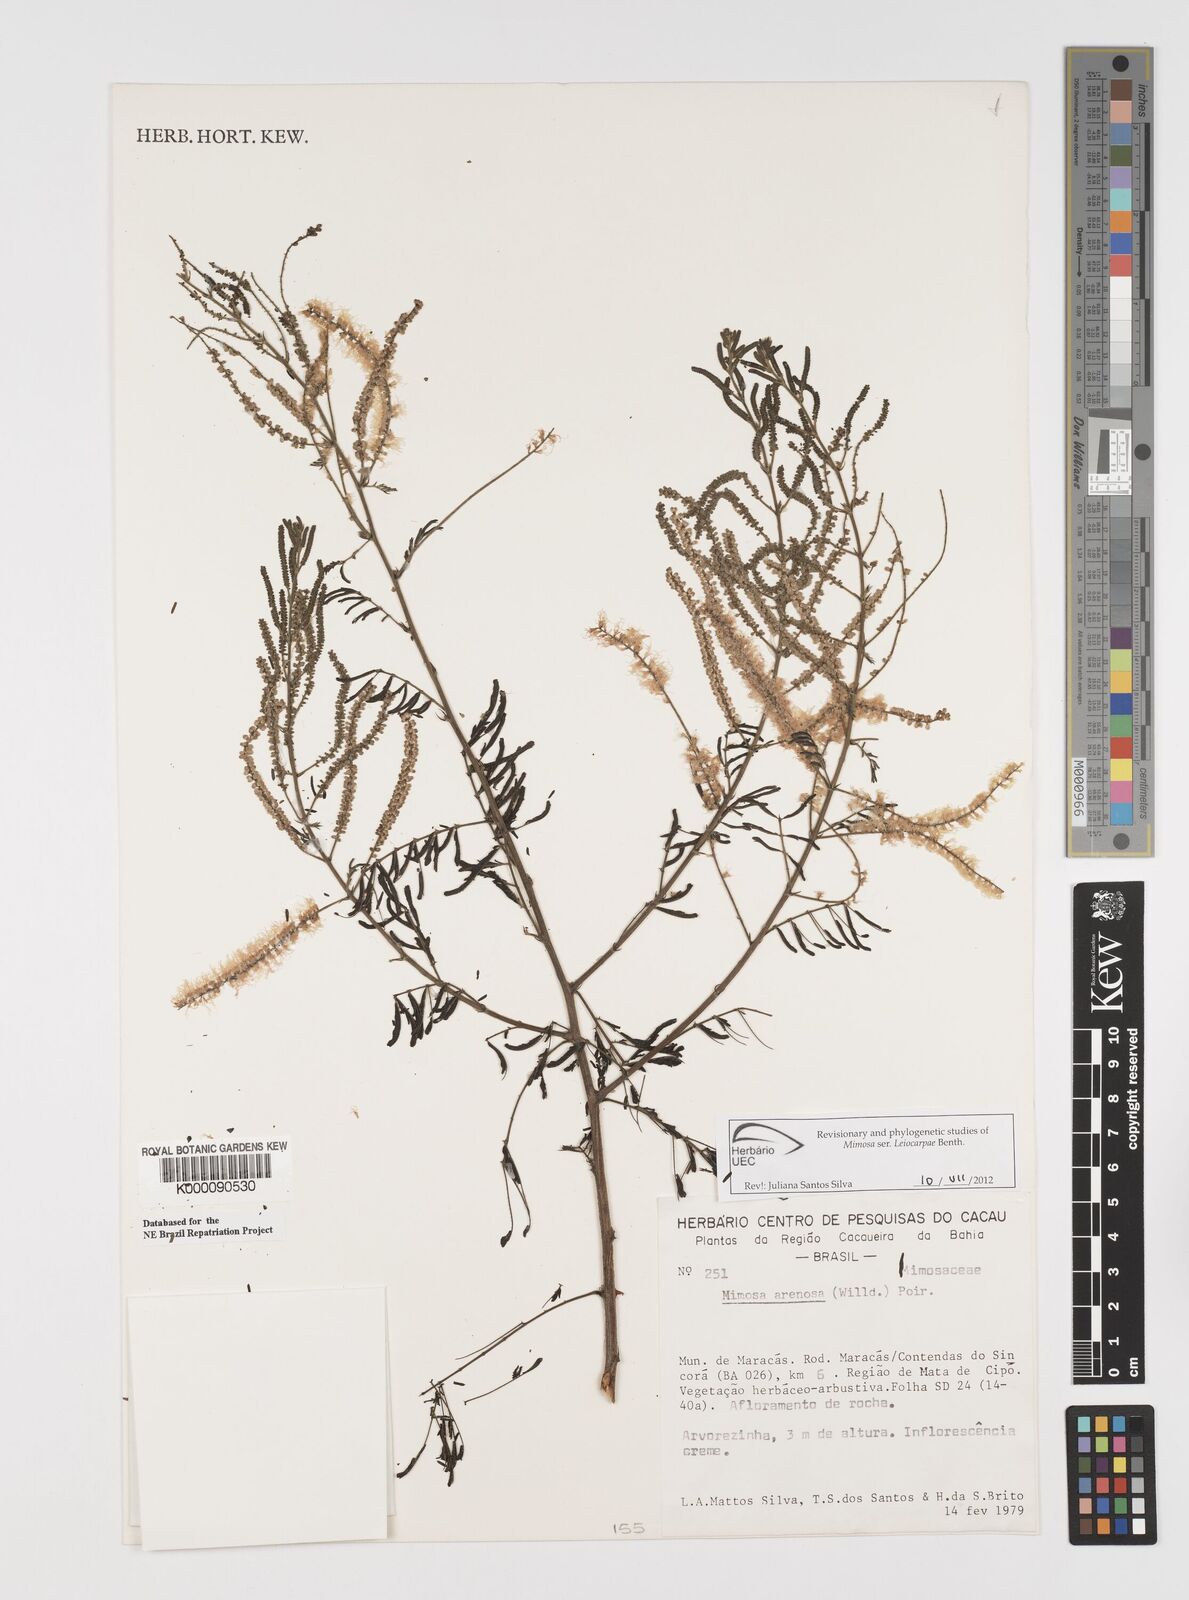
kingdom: Plantae
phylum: Tracheophyta
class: Magnoliopsida
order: Fabales
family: Fabaceae
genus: Mimosa
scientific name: Mimosa arenosa
